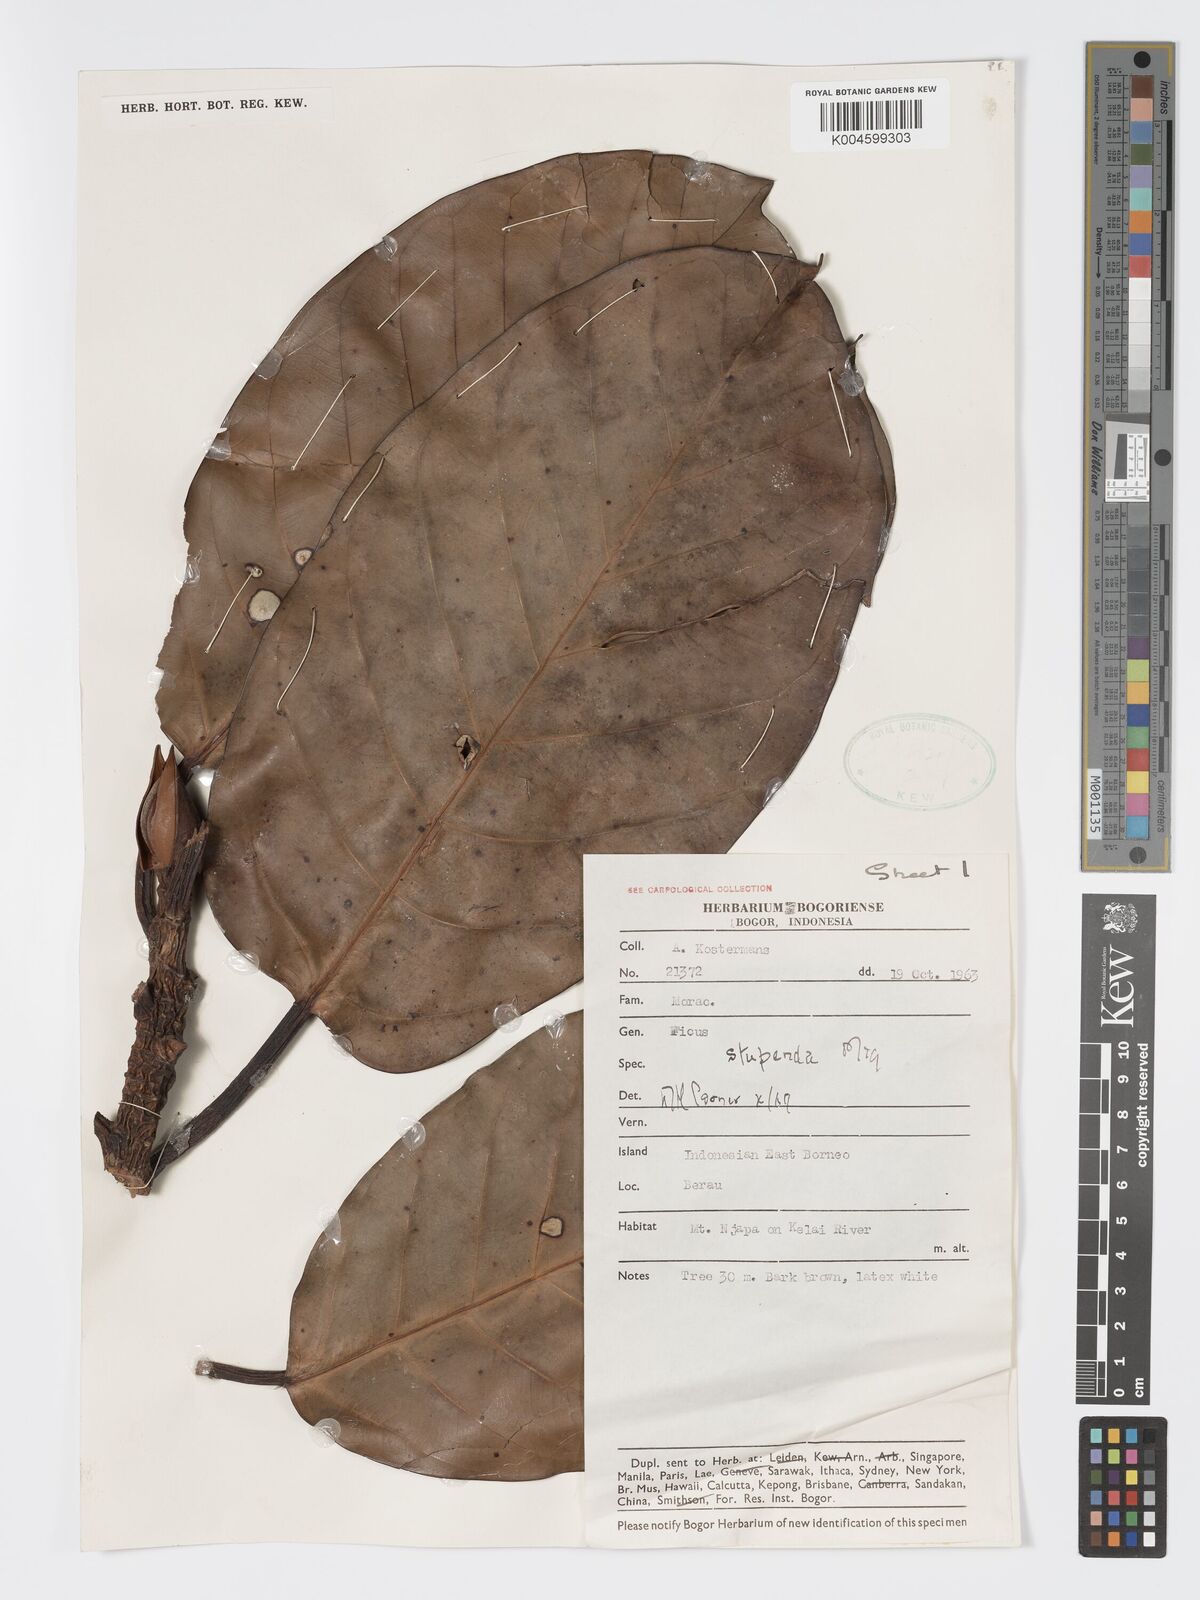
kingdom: Plantae
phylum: Tracheophyta
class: Magnoliopsida
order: Rosales
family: Moraceae
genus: Ficus
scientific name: Ficus crassiramea
